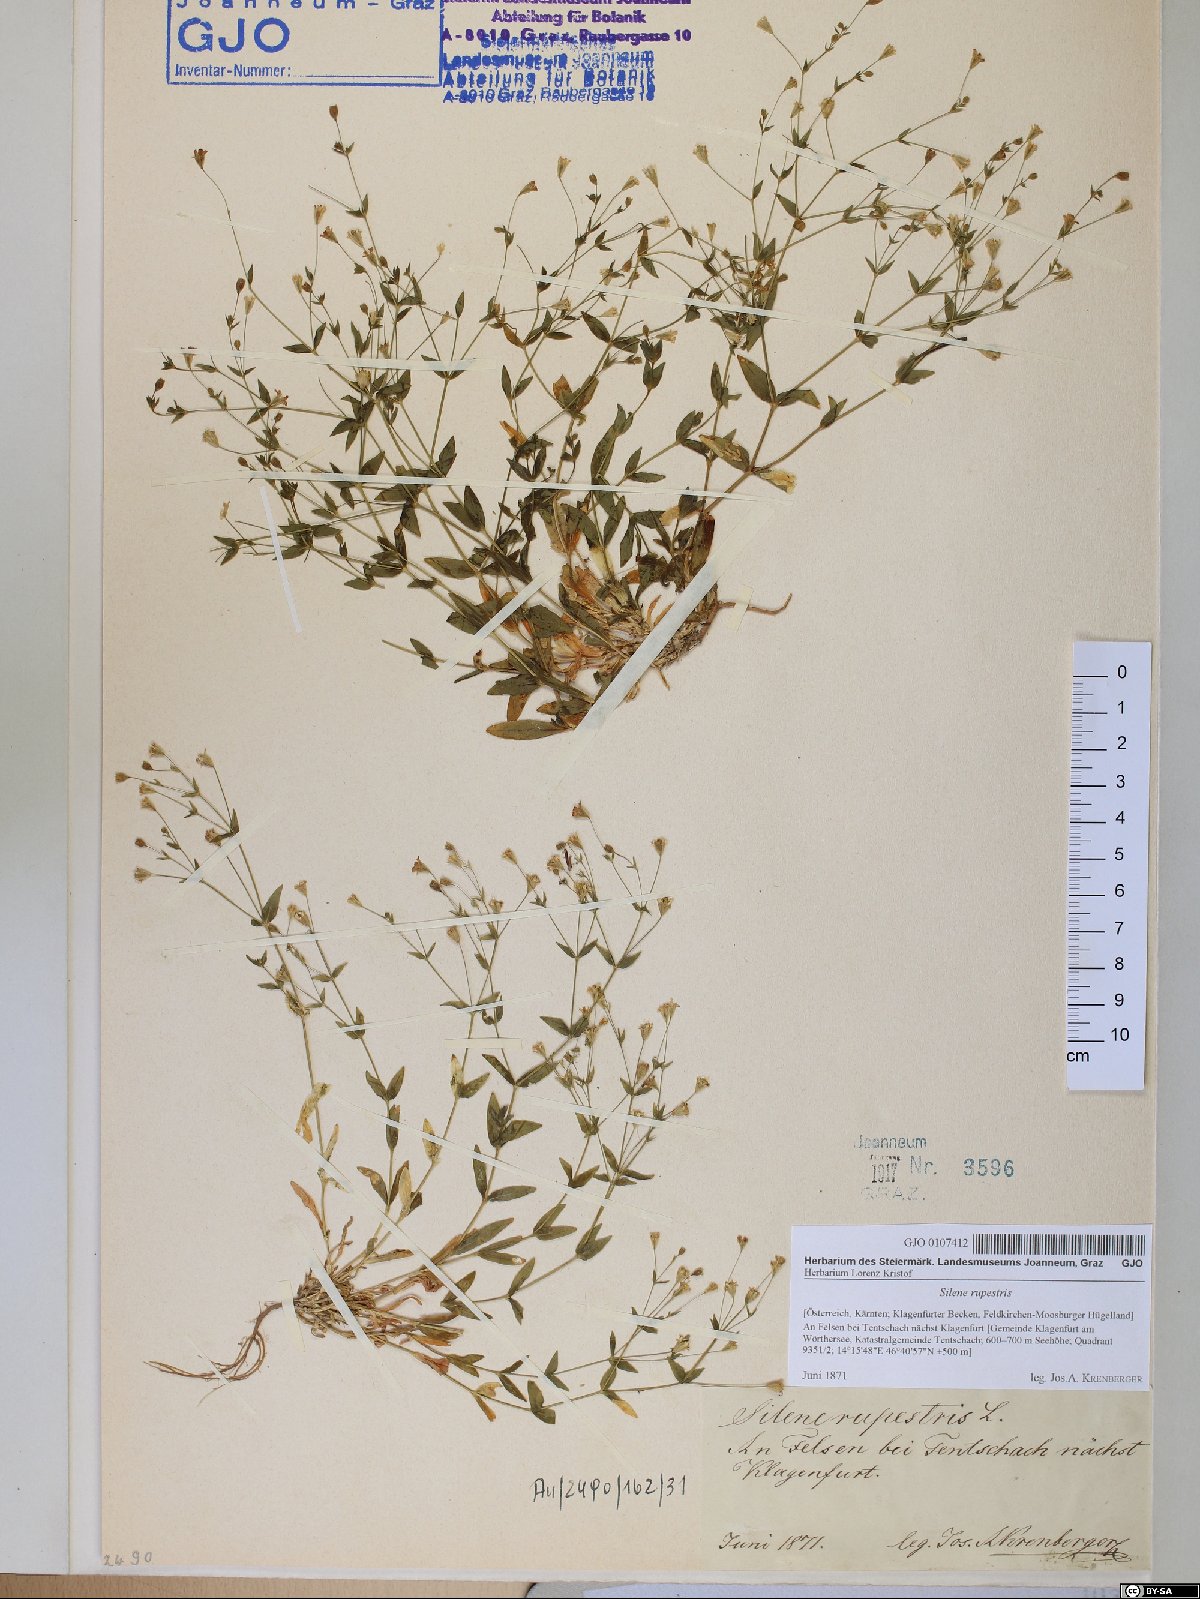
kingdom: Plantae
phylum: Tracheophyta
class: Magnoliopsida
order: Caryophyllales
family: Caryophyllaceae
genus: Atocion
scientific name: Atocion rupestre
